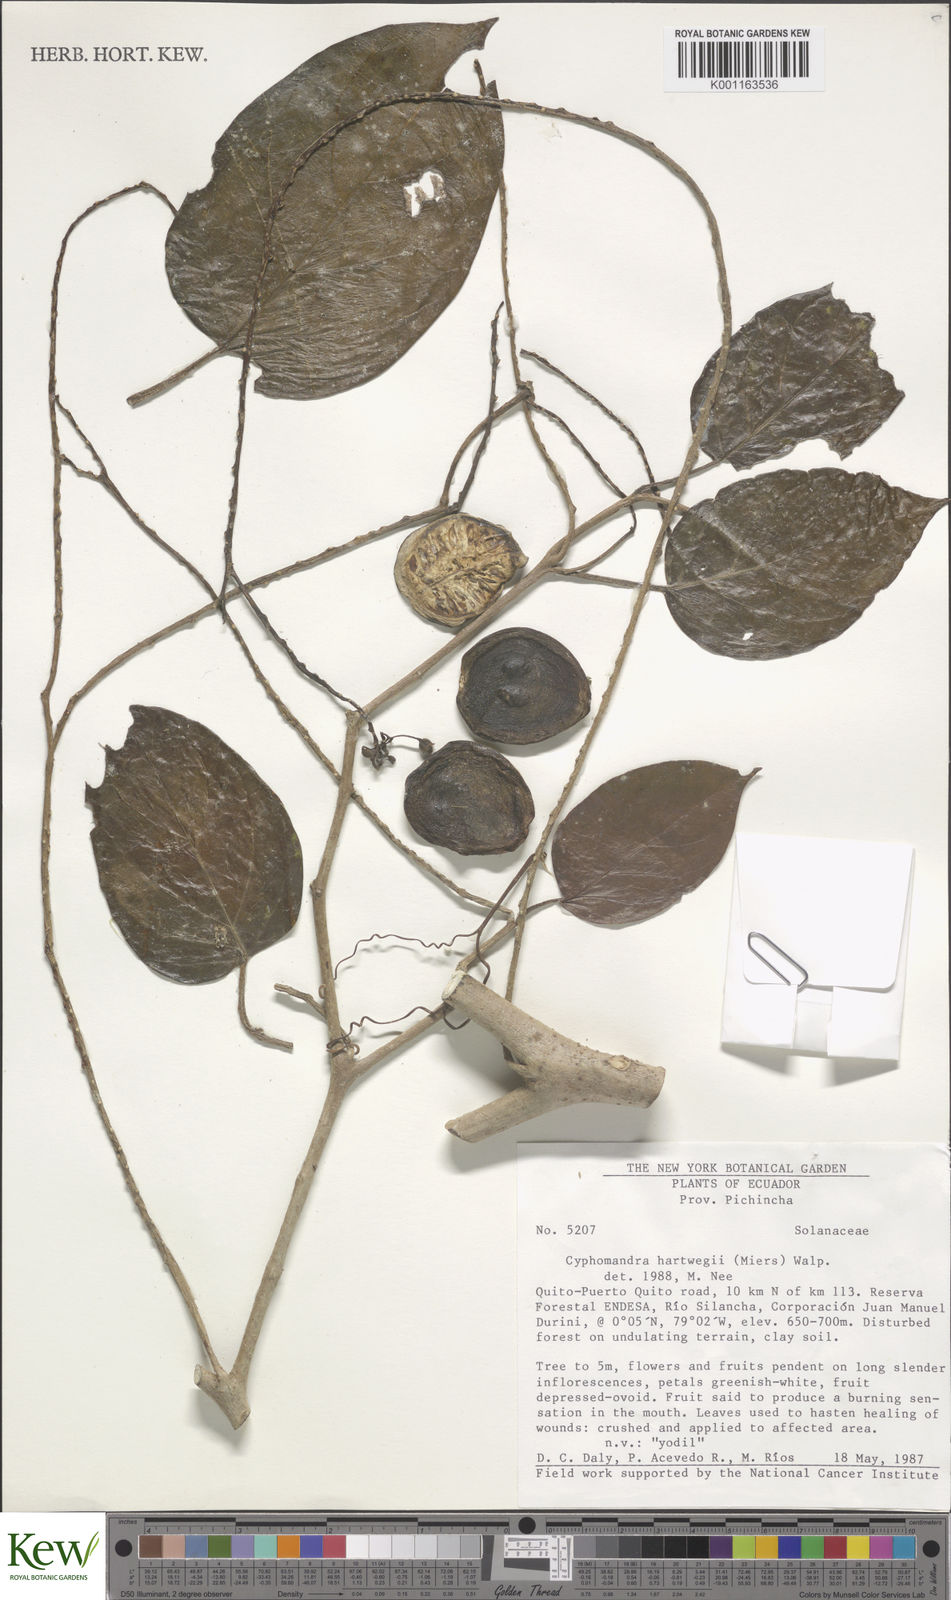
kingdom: Plantae
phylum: Tracheophyta
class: Magnoliopsida
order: Solanales
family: Solanaceae
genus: Solanum
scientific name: Solanum splendens
